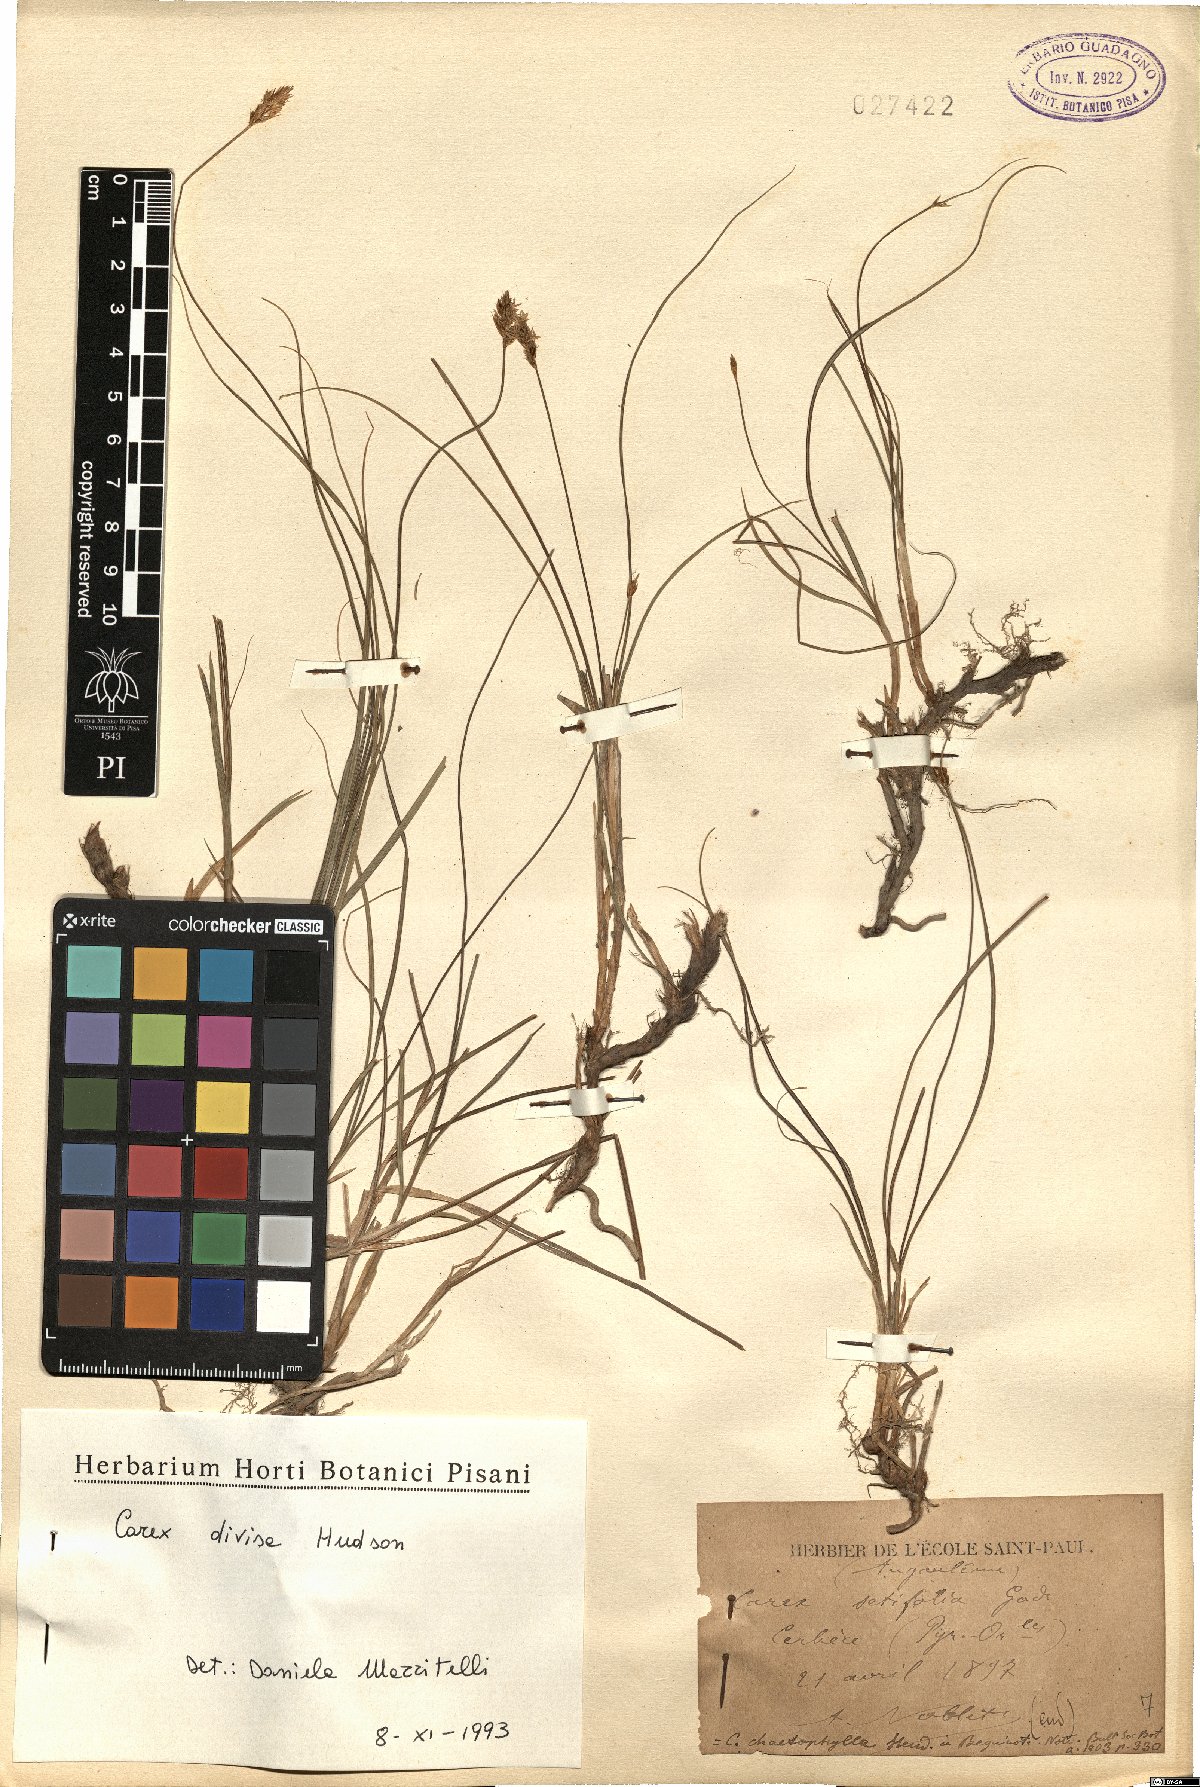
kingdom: Plantae
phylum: Tracheophyta
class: Liliopsida
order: Poales
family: Cyperaceae
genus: Carex
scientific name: Carex divisa
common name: Divided sedge
